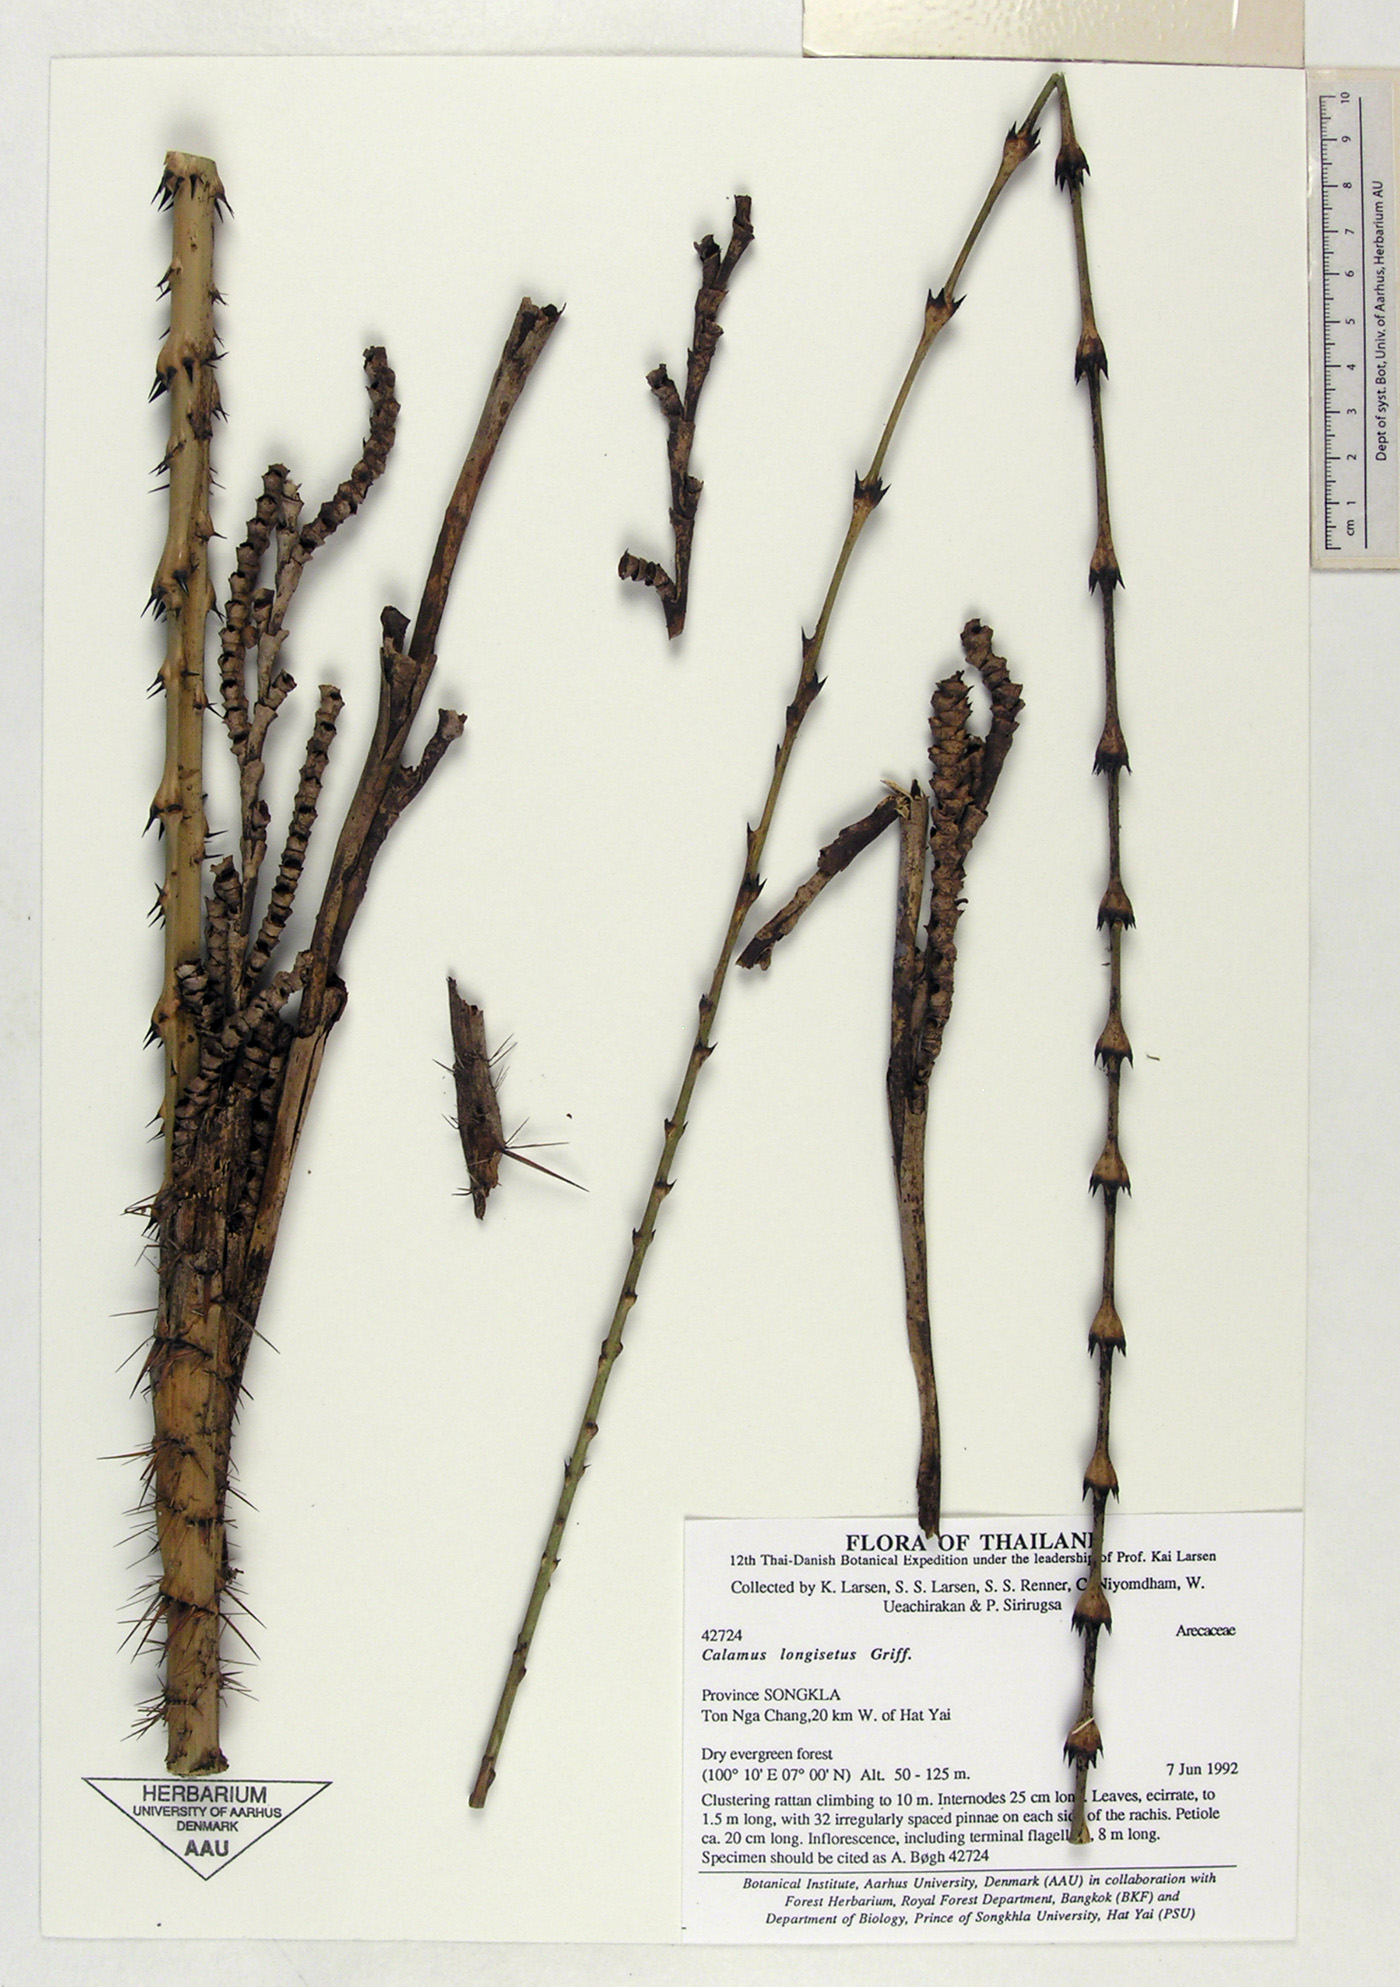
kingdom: Plantae
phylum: Tracheophyta
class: Liliopsida
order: Arecales
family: Arecaceae
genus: Calamus
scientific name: Calamus longisetus
